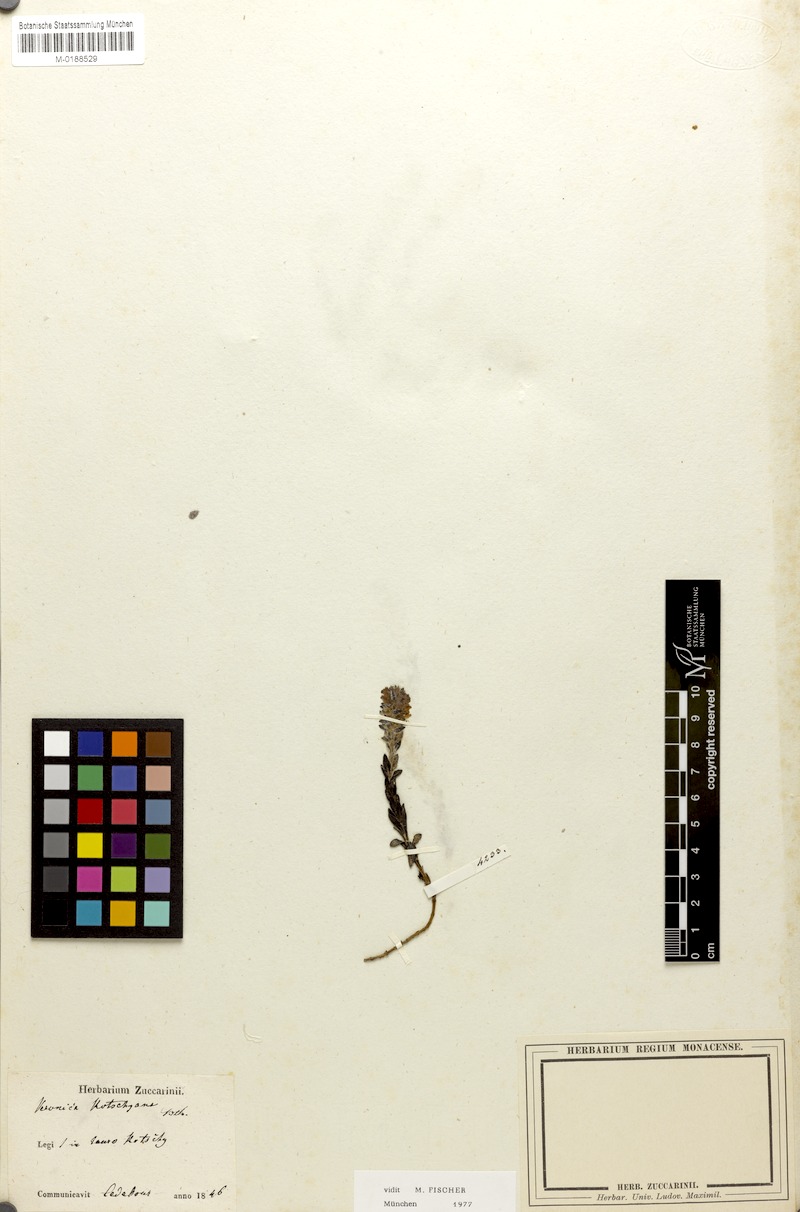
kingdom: Plantae
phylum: Tracheophyta
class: Magnoliopsida
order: Lamiales
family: Plantaginaceae
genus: Veronica
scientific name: Veronica kotschyana
